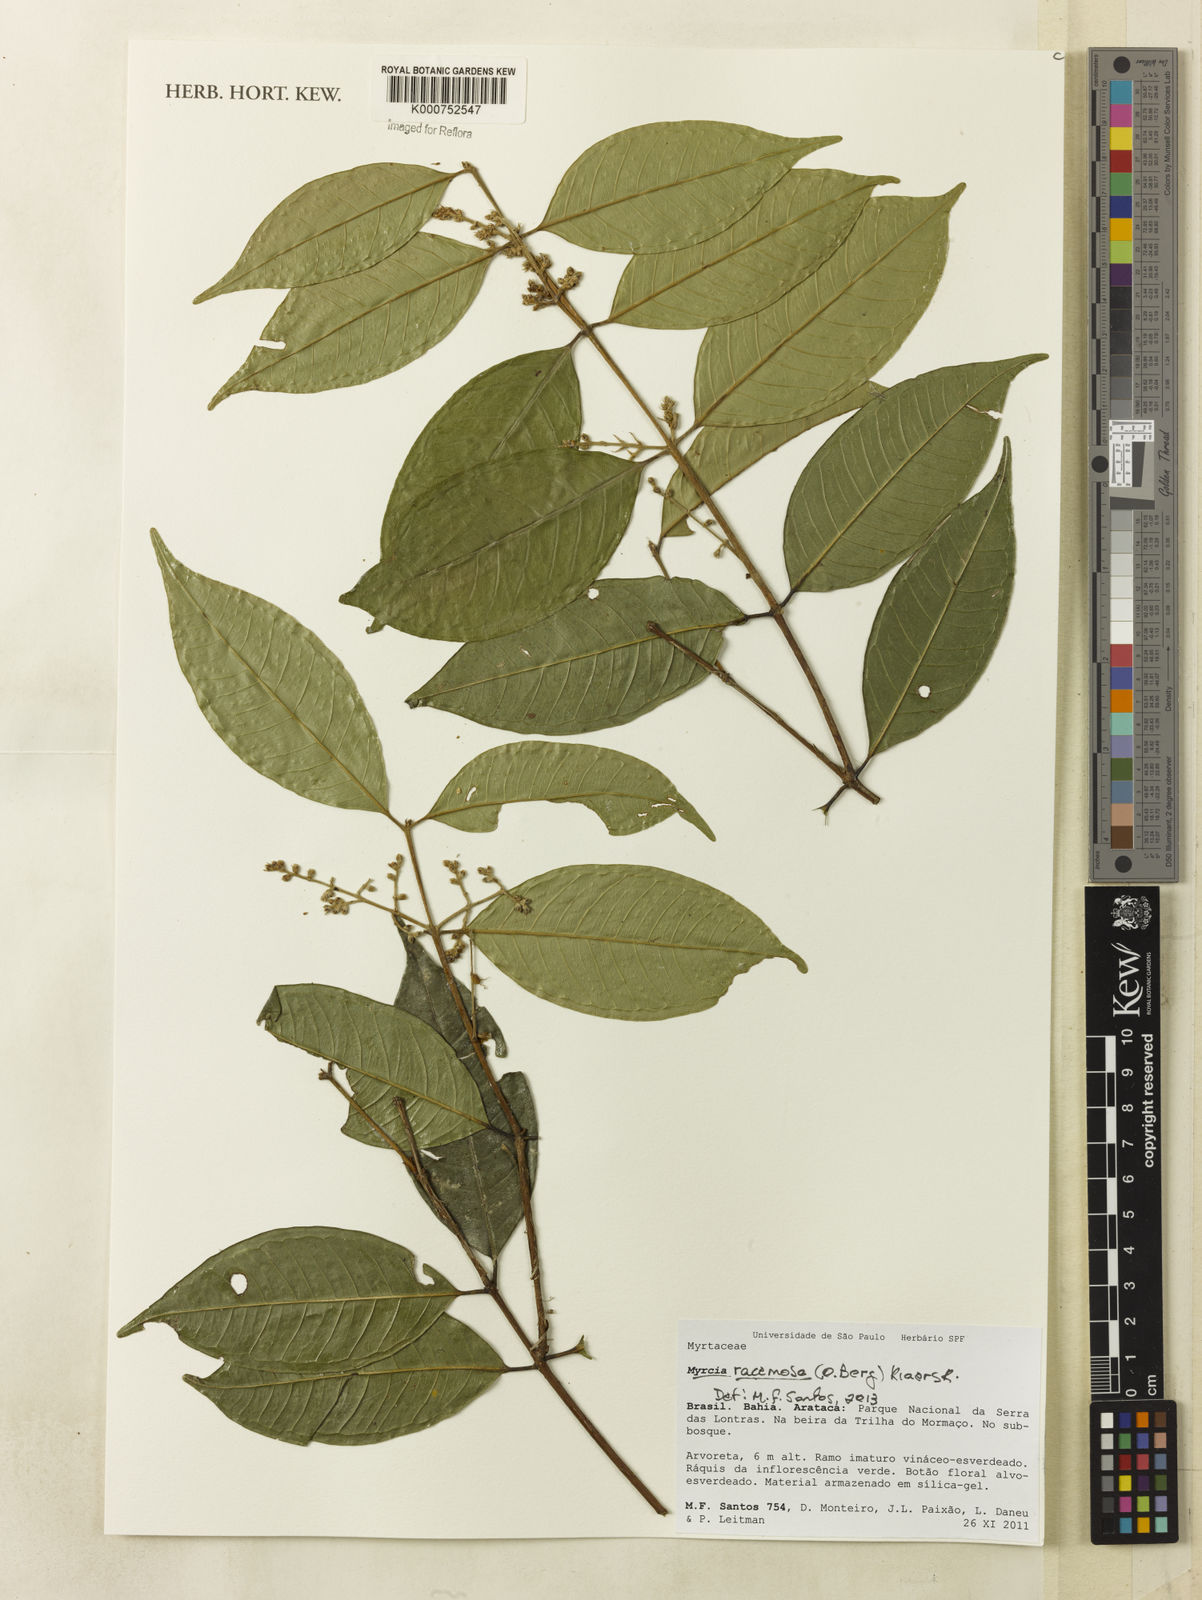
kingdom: Plantae
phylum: Tracheophyta
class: Magnoliopsida
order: Myrtales
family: Myrtaceae
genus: Myrcia
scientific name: Myrcia racemosa
